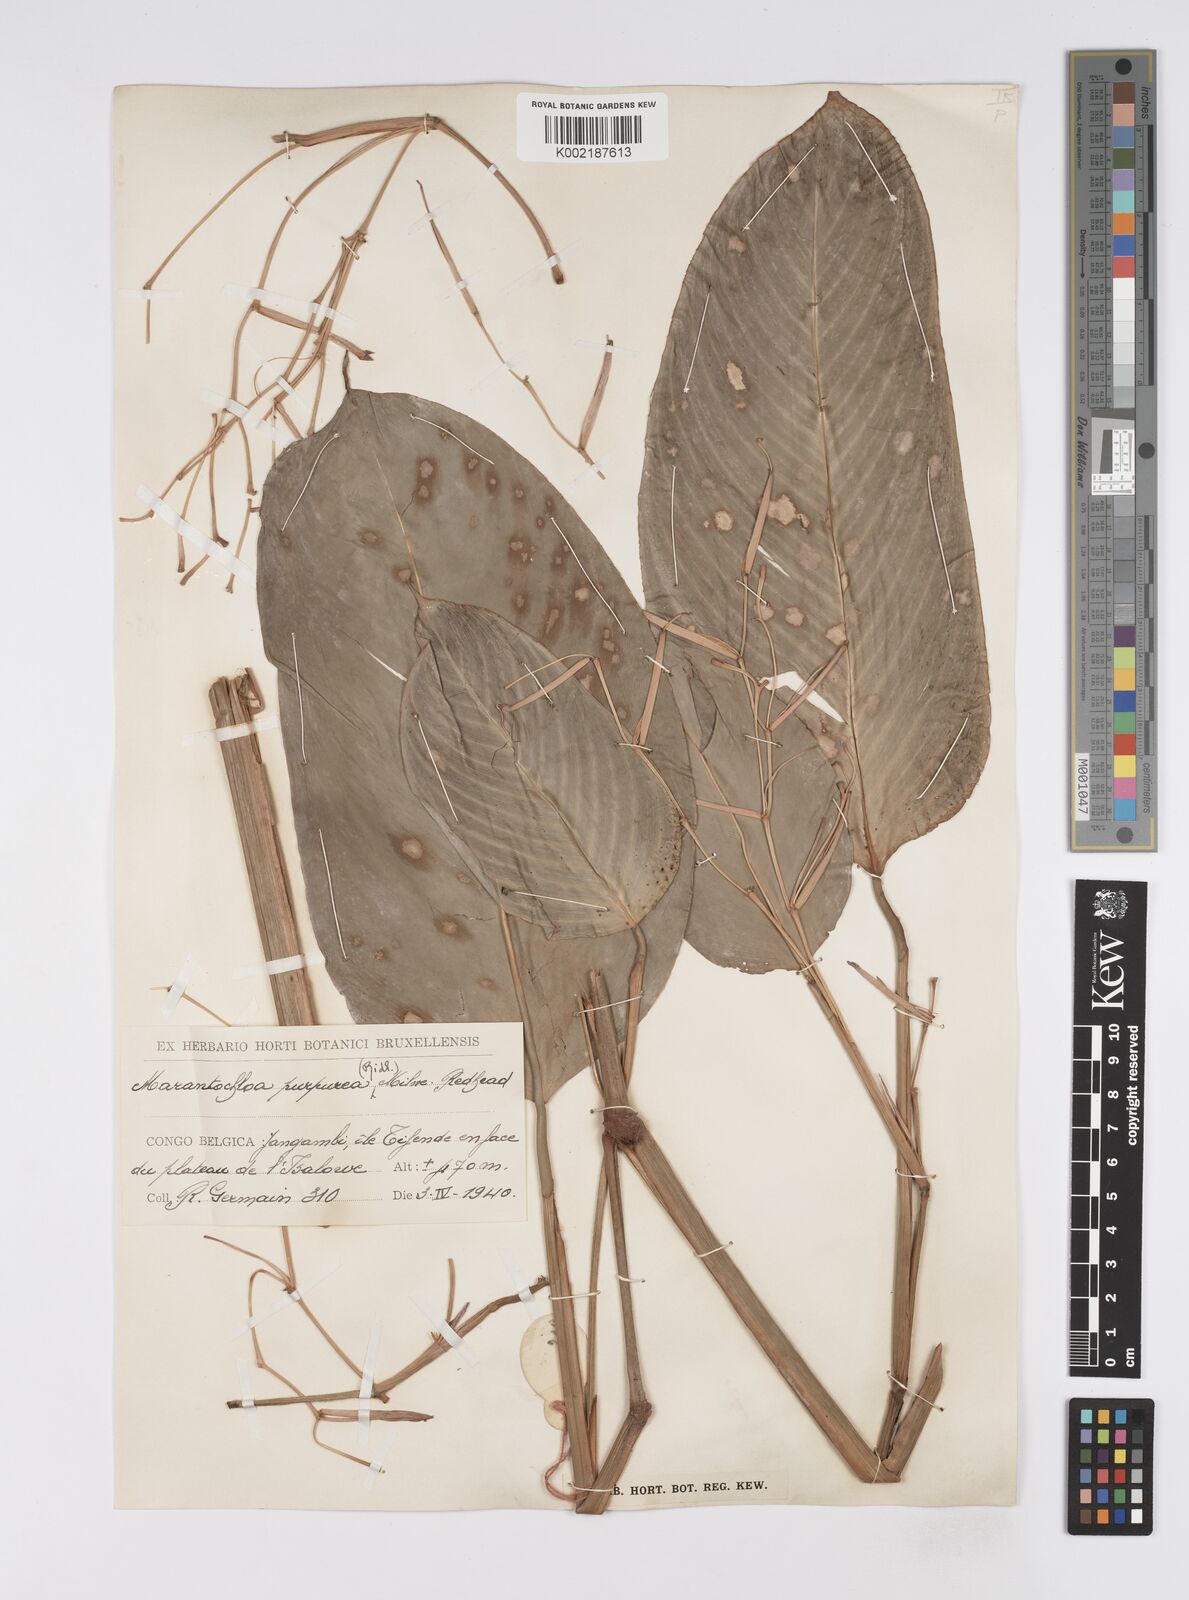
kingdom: Plantae
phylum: Tracheophyta
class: Liliopsida
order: Zingiberales
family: Marantaceae
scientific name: Marantaceae
